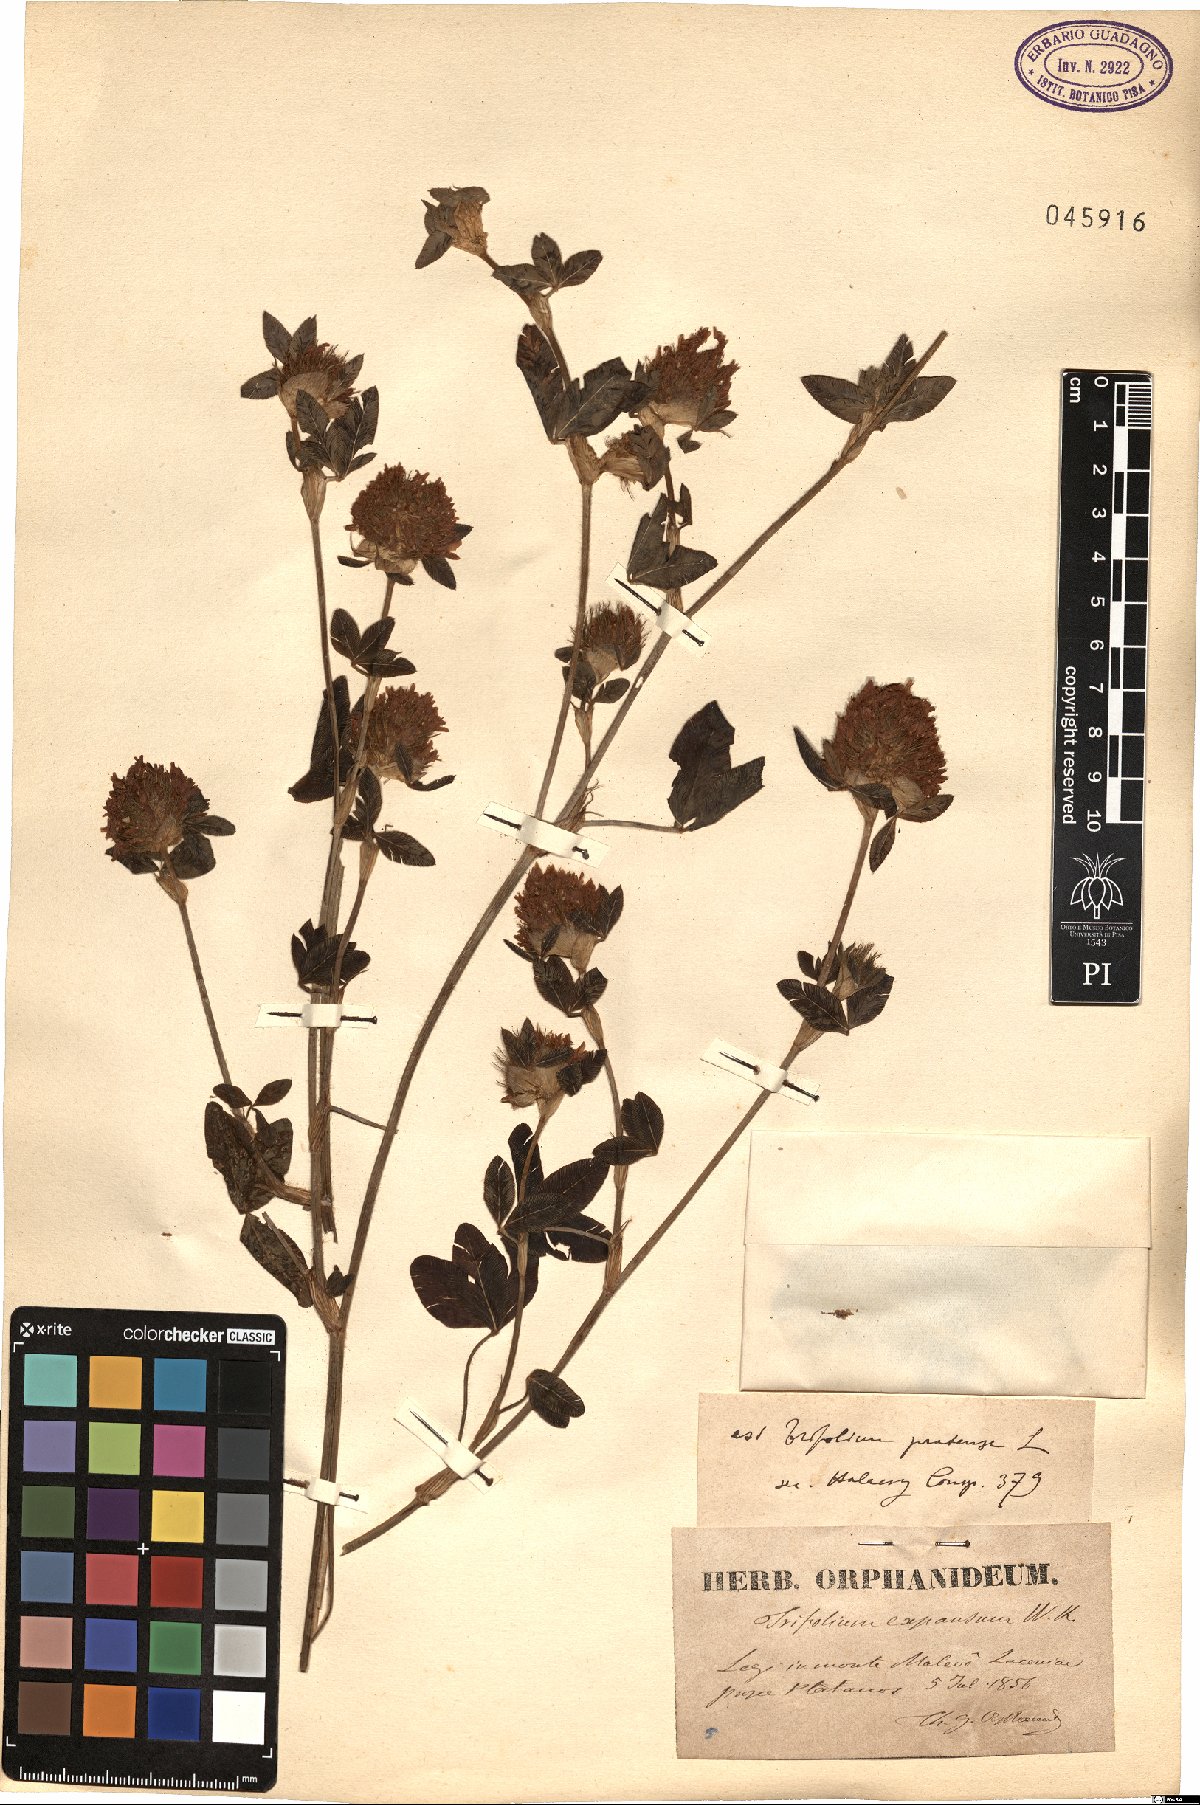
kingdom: Plantae
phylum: Tracheophyta
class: Magnoliopsida
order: Fabales
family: Fabaceae
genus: Trifolium
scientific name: Trifolium pratense
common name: Red clover
